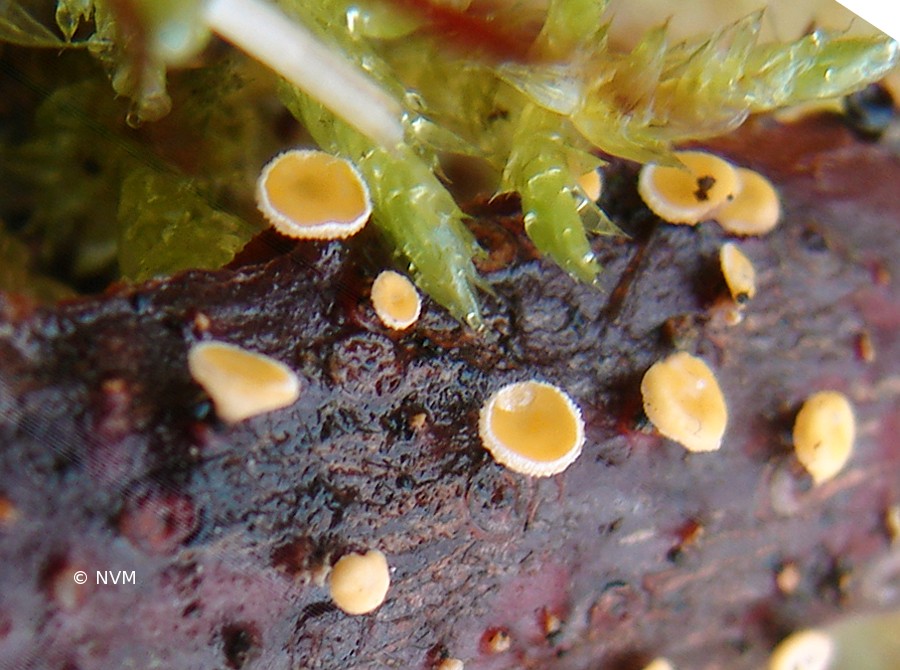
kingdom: Fungi
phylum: Ascomycota
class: Leotiomycetes
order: Helotiales
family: Lachnaceae
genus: Lachnellula
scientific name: Lachnellula subtilissima
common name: gran-frynseskive
